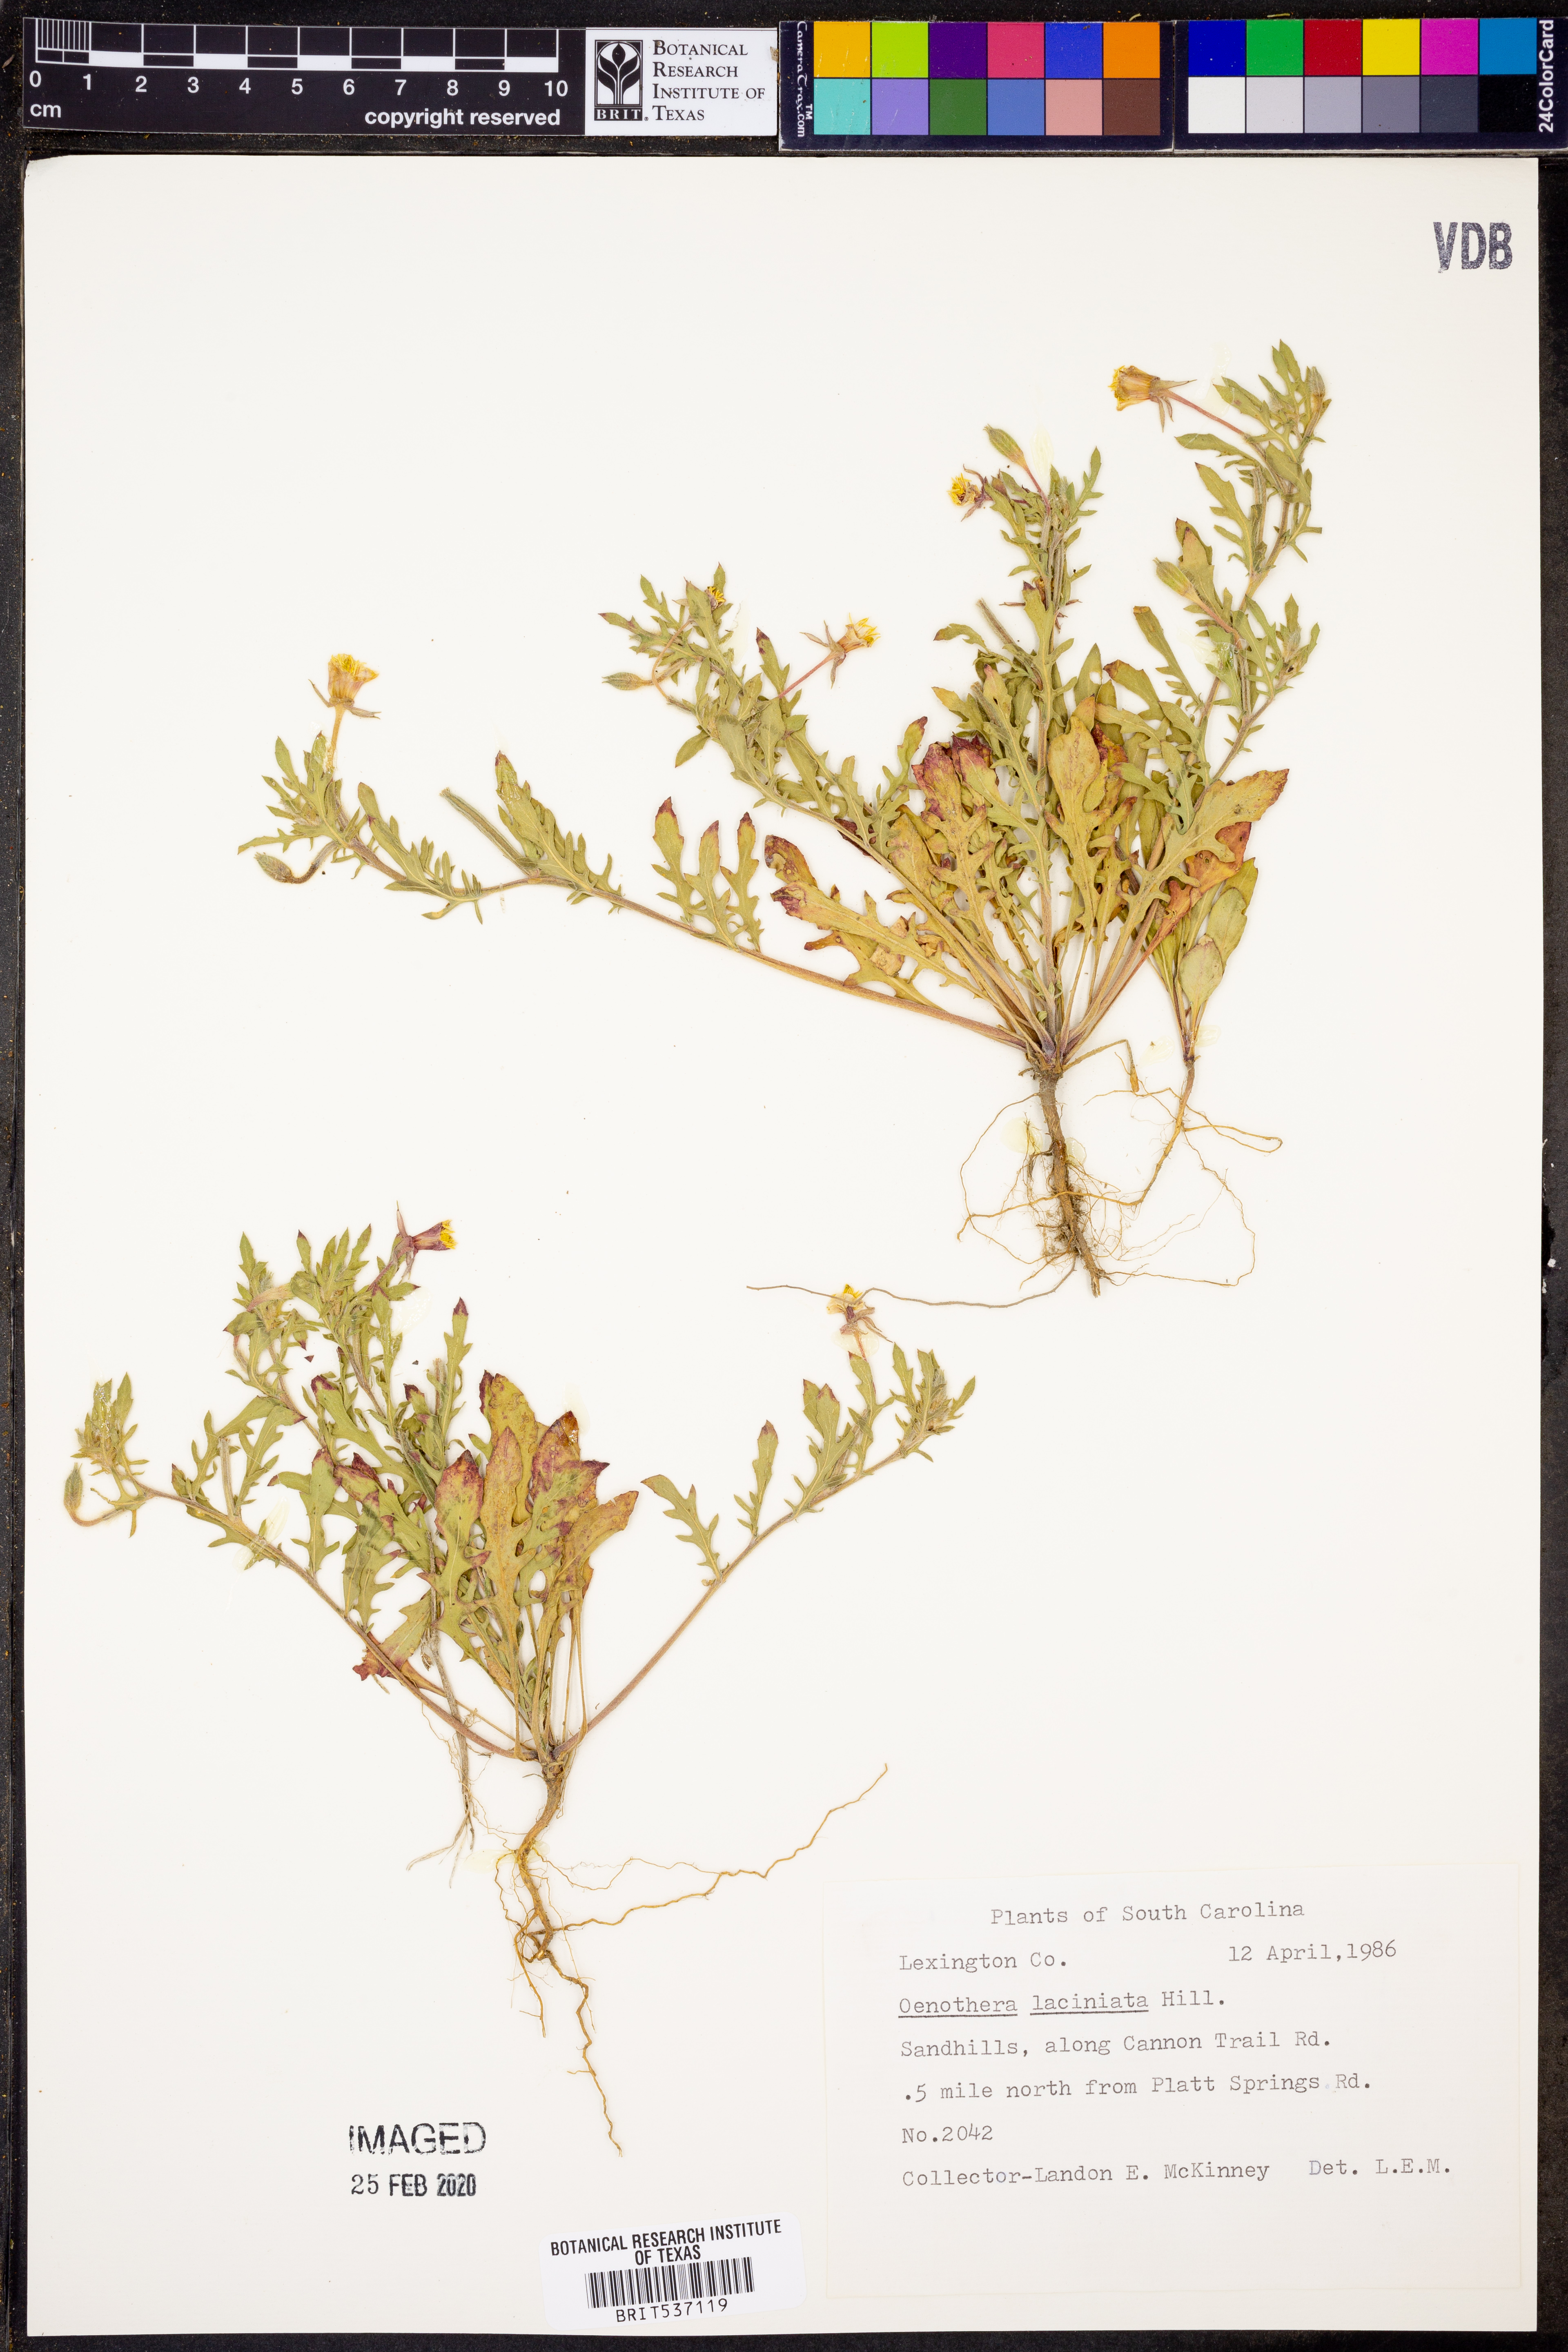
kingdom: Plantae
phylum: Tracheophyta
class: Magnoliopsida
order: Myrtales
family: Onagraceae
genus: Oenothera
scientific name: Oenothera laciniata
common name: Cut-leaved evening-primrose
